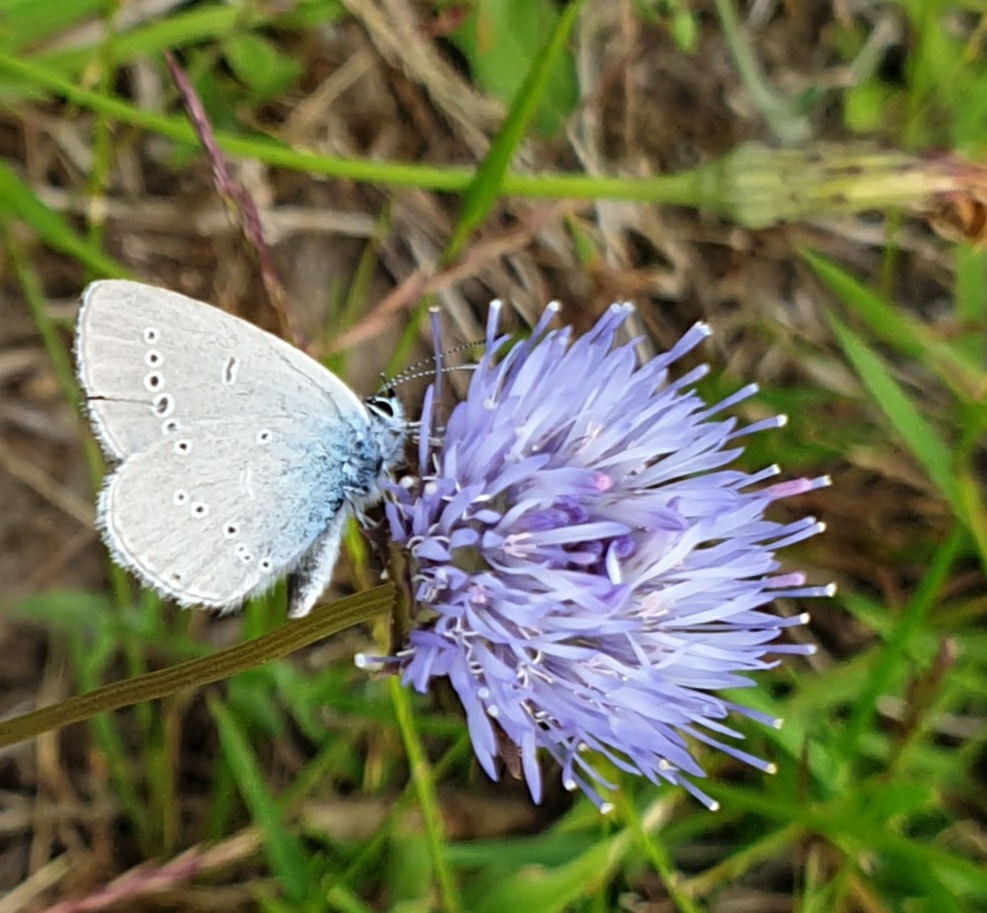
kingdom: Animalia
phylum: Arthropoda
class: Insecta
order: Lepidoptera
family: Lycaenidae
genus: Cupido
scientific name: Cupido minimus
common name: Dværgblåfugl
